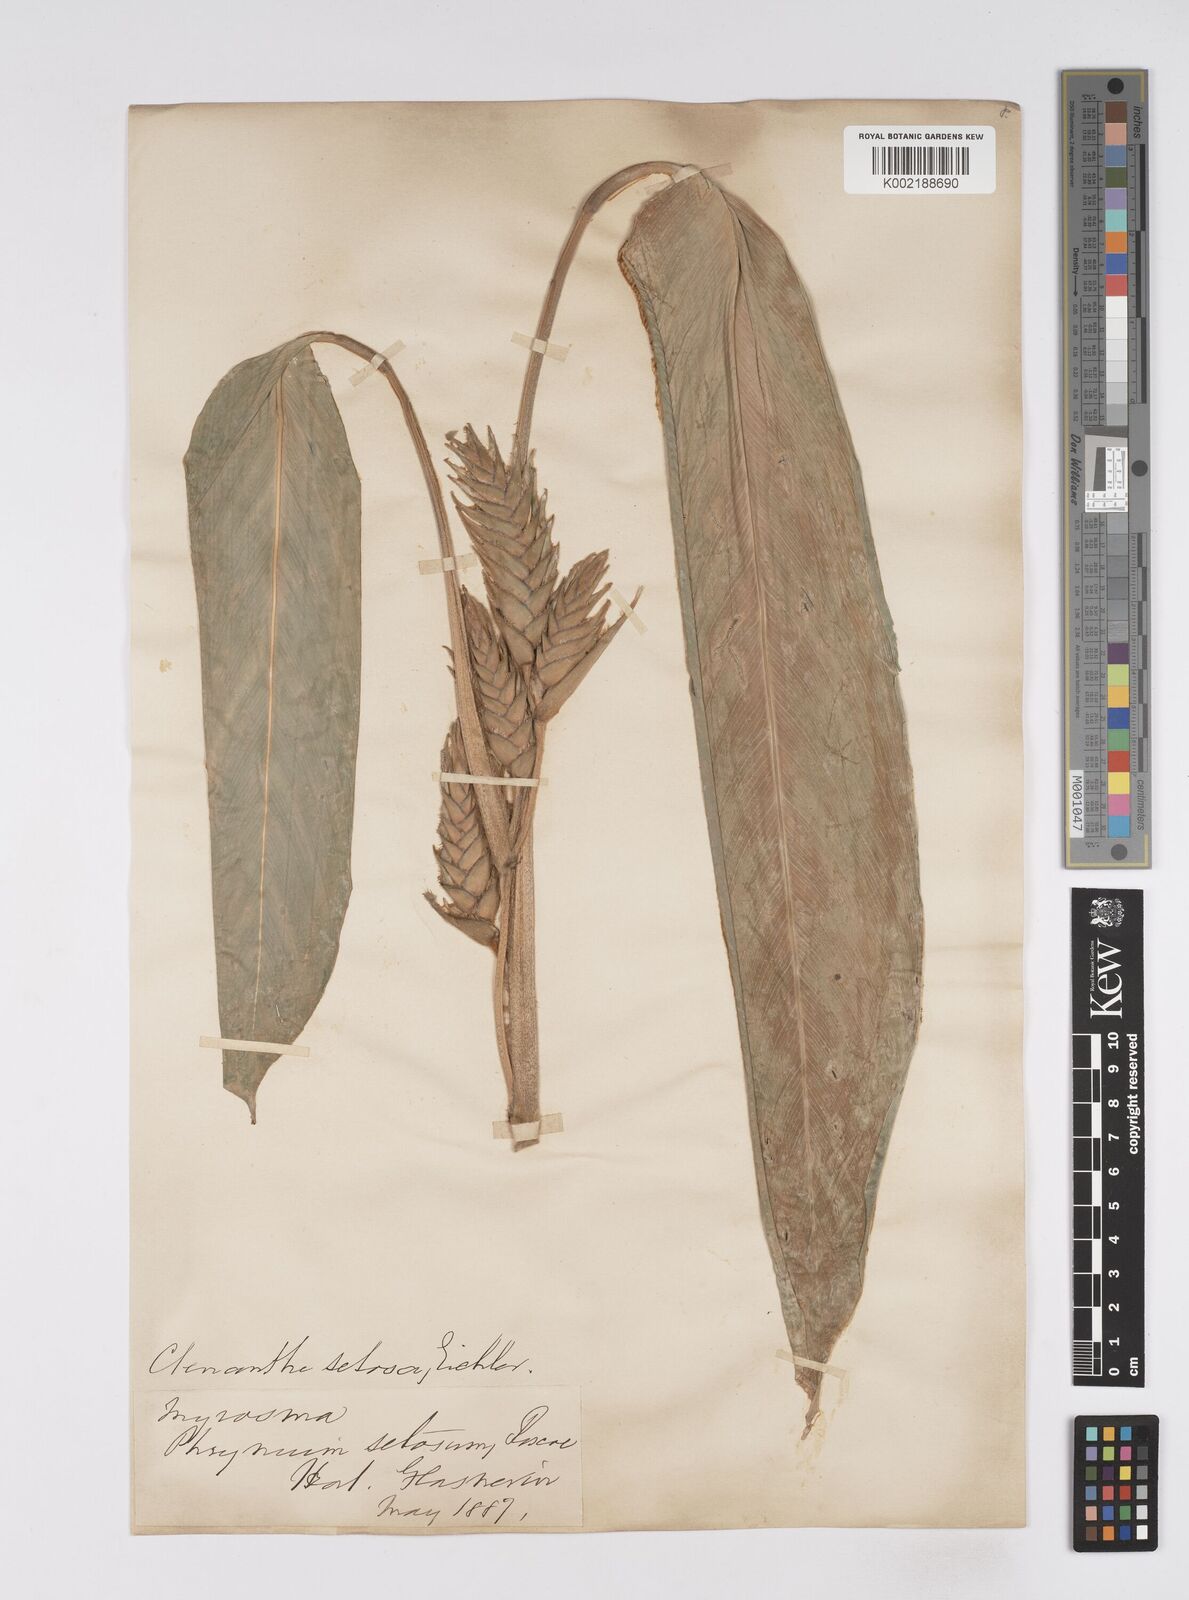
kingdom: Plantae
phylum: Tracheophyta
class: Liliopsida
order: Zingiberales
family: Marantaceae
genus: Ctenanthe
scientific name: Ctenanthe
